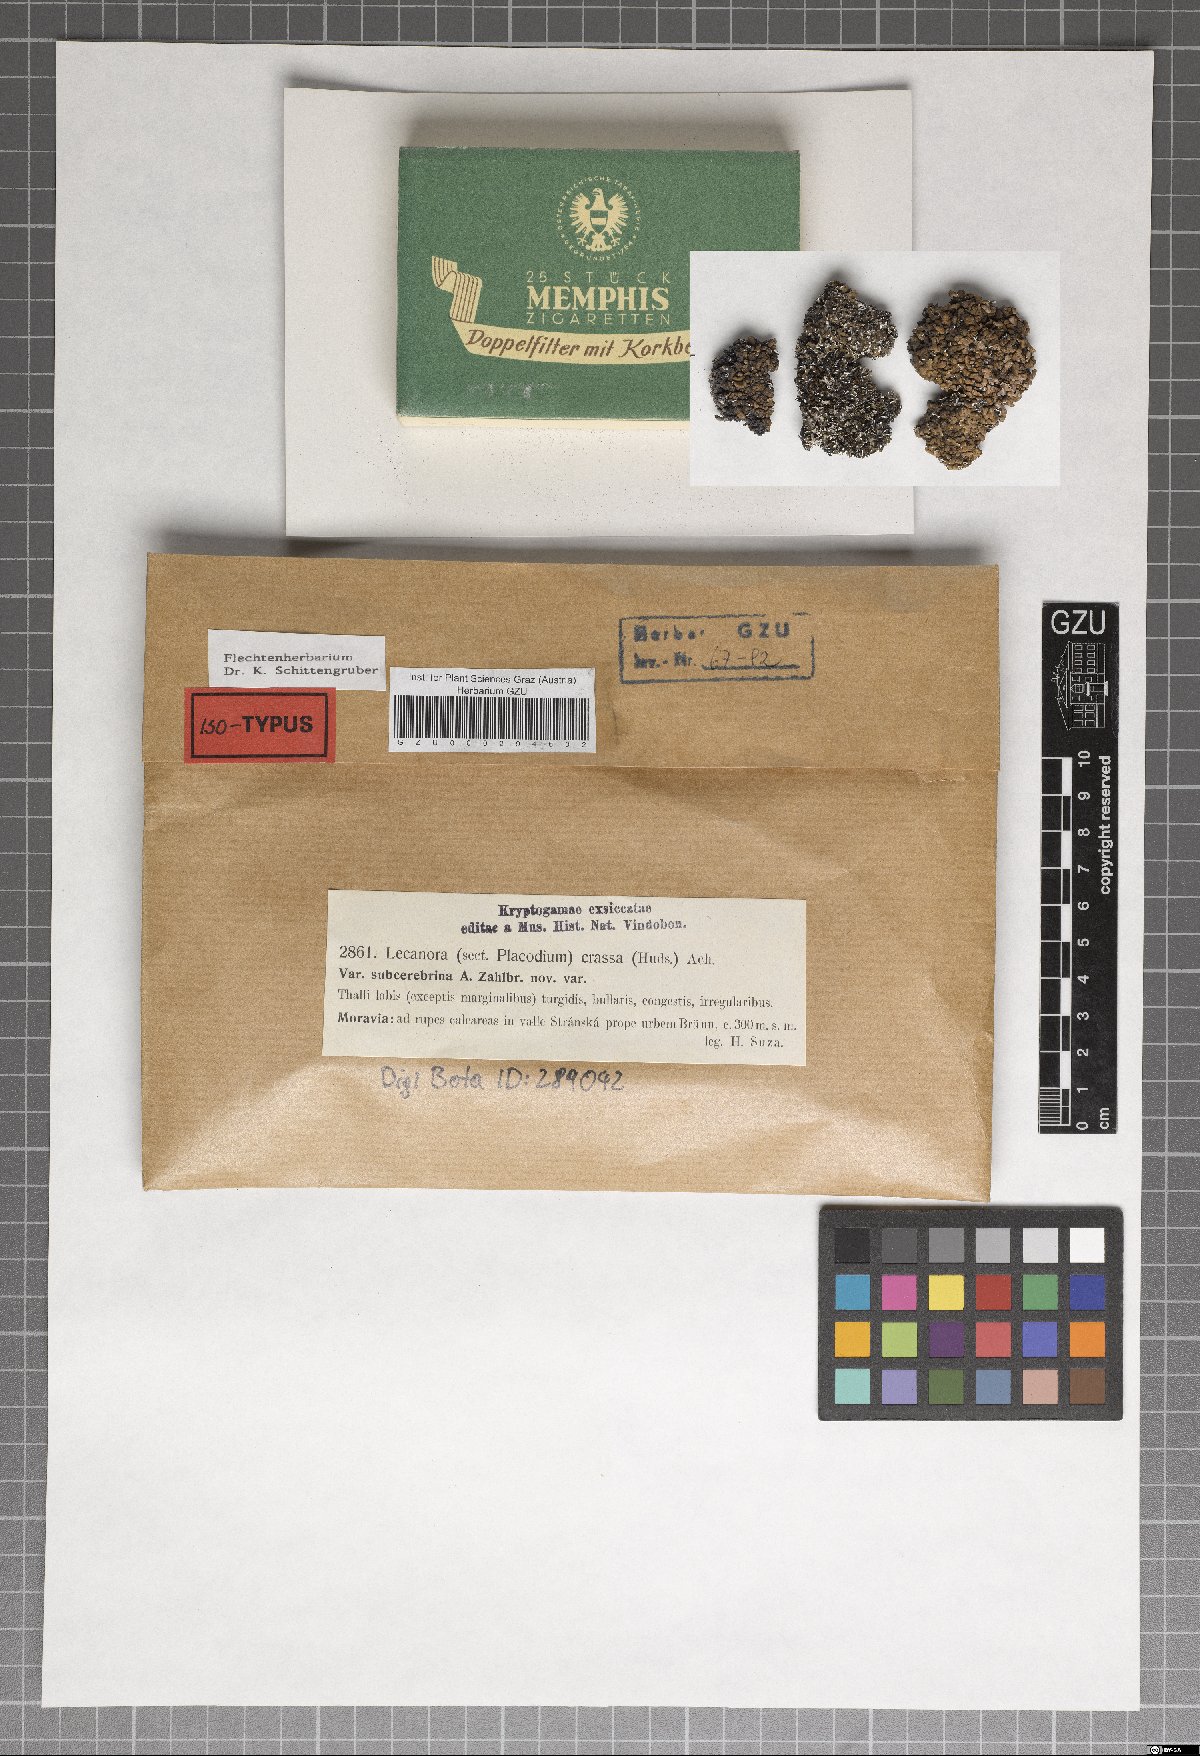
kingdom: Fungi
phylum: Ascomycota
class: Lecanoromycetes
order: Lecanorales
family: Lecanoraceae
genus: Lecanora
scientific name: Lecanora chlarotera
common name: Brown rim-lichen
